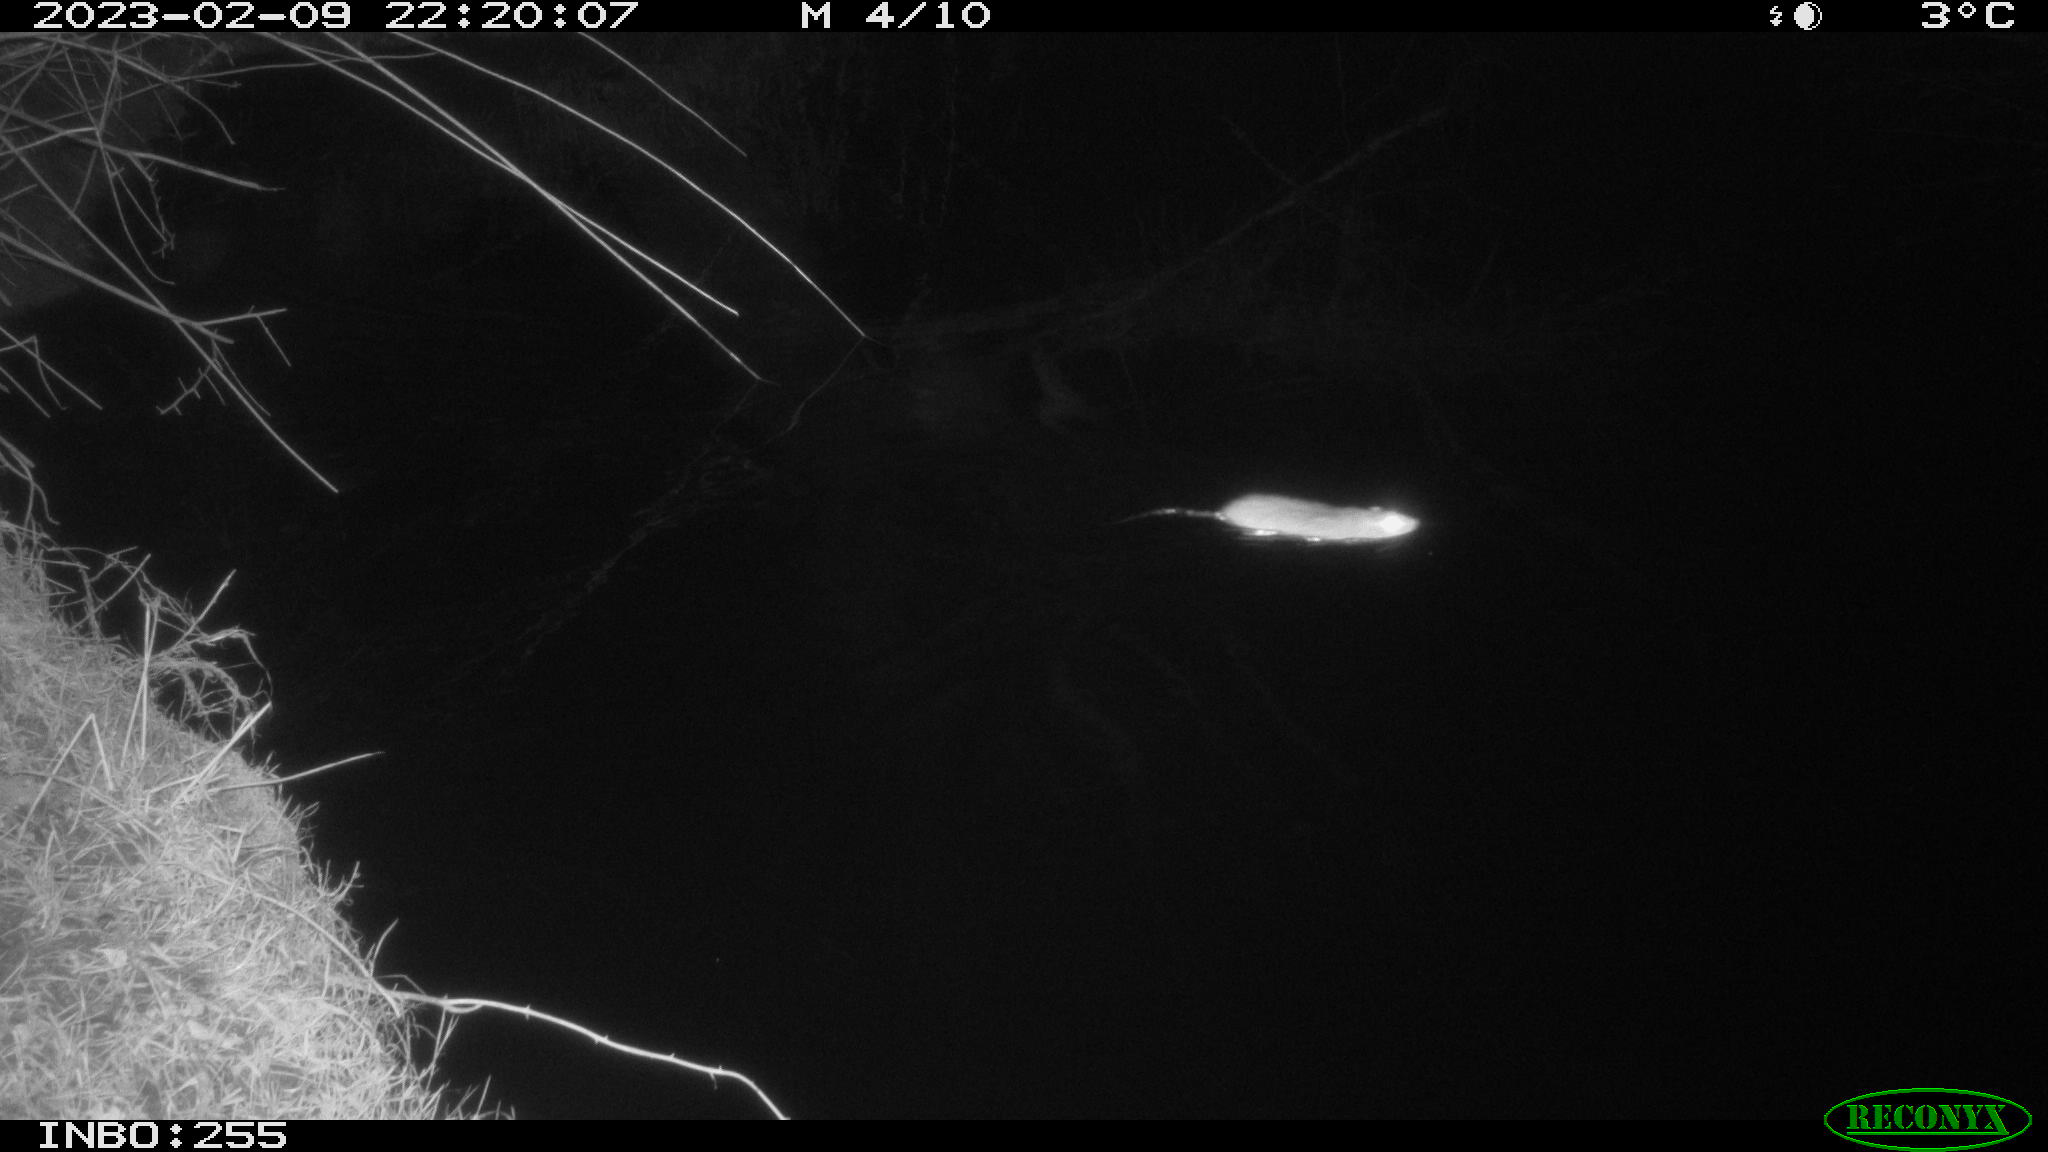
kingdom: Animalia
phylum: Chordata
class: Mammalia
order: Rodentia
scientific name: Rodentia
